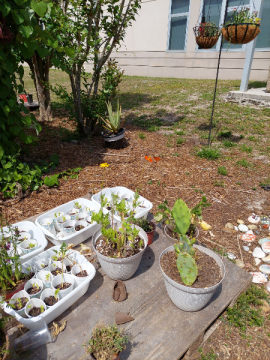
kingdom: Animalia
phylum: Arthropoda
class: Insecta
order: Lepidoptera
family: Nymphalidae
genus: Polygonia
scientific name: Polygonia comma
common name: Eastern Comma
